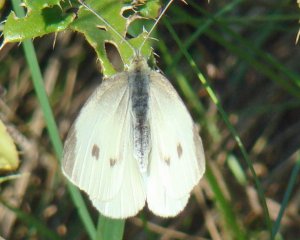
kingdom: Animalia
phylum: Arthropoda
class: Insecta
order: Lepidoptera
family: Pieridae
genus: Pieris
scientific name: Pieris rapae
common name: Cabbage White
